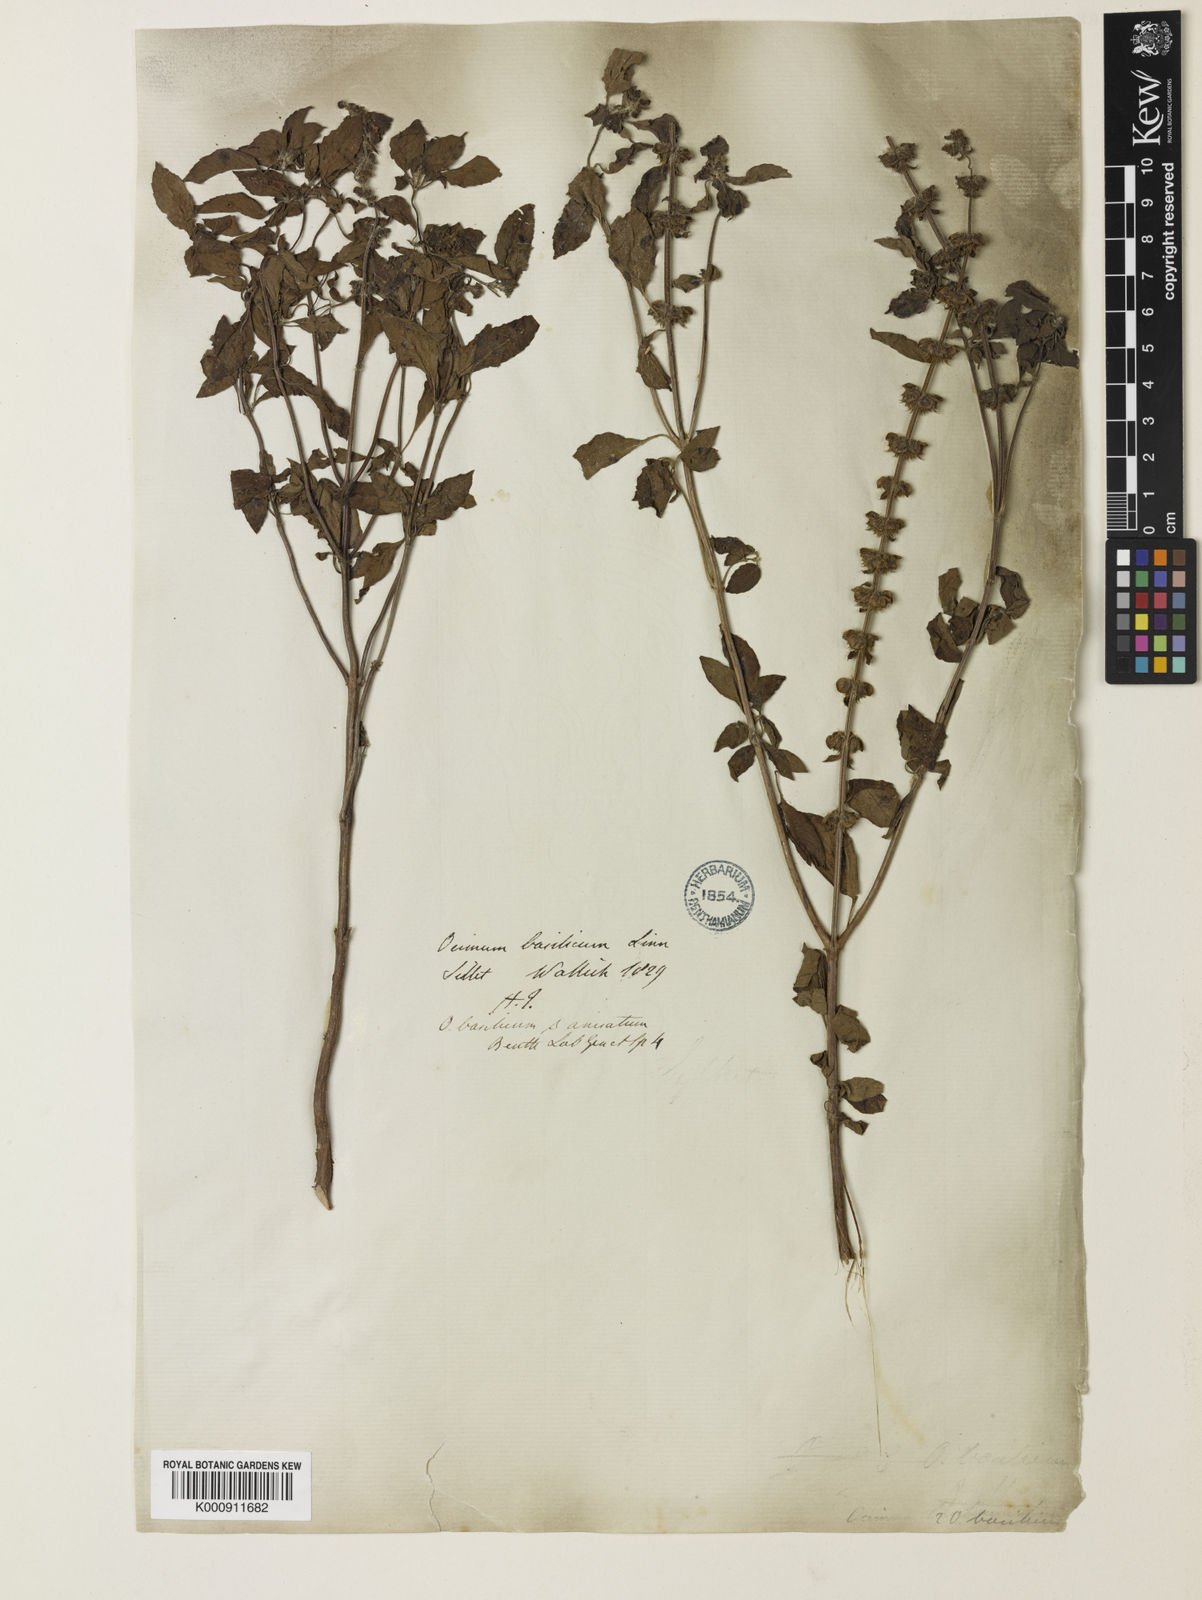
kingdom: Plantae
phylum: Tracheophyta
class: Magnoliopsida
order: Lamiales
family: Lamiaceae
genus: Ocimum
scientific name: Ocimum africanum
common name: Hoary basil
